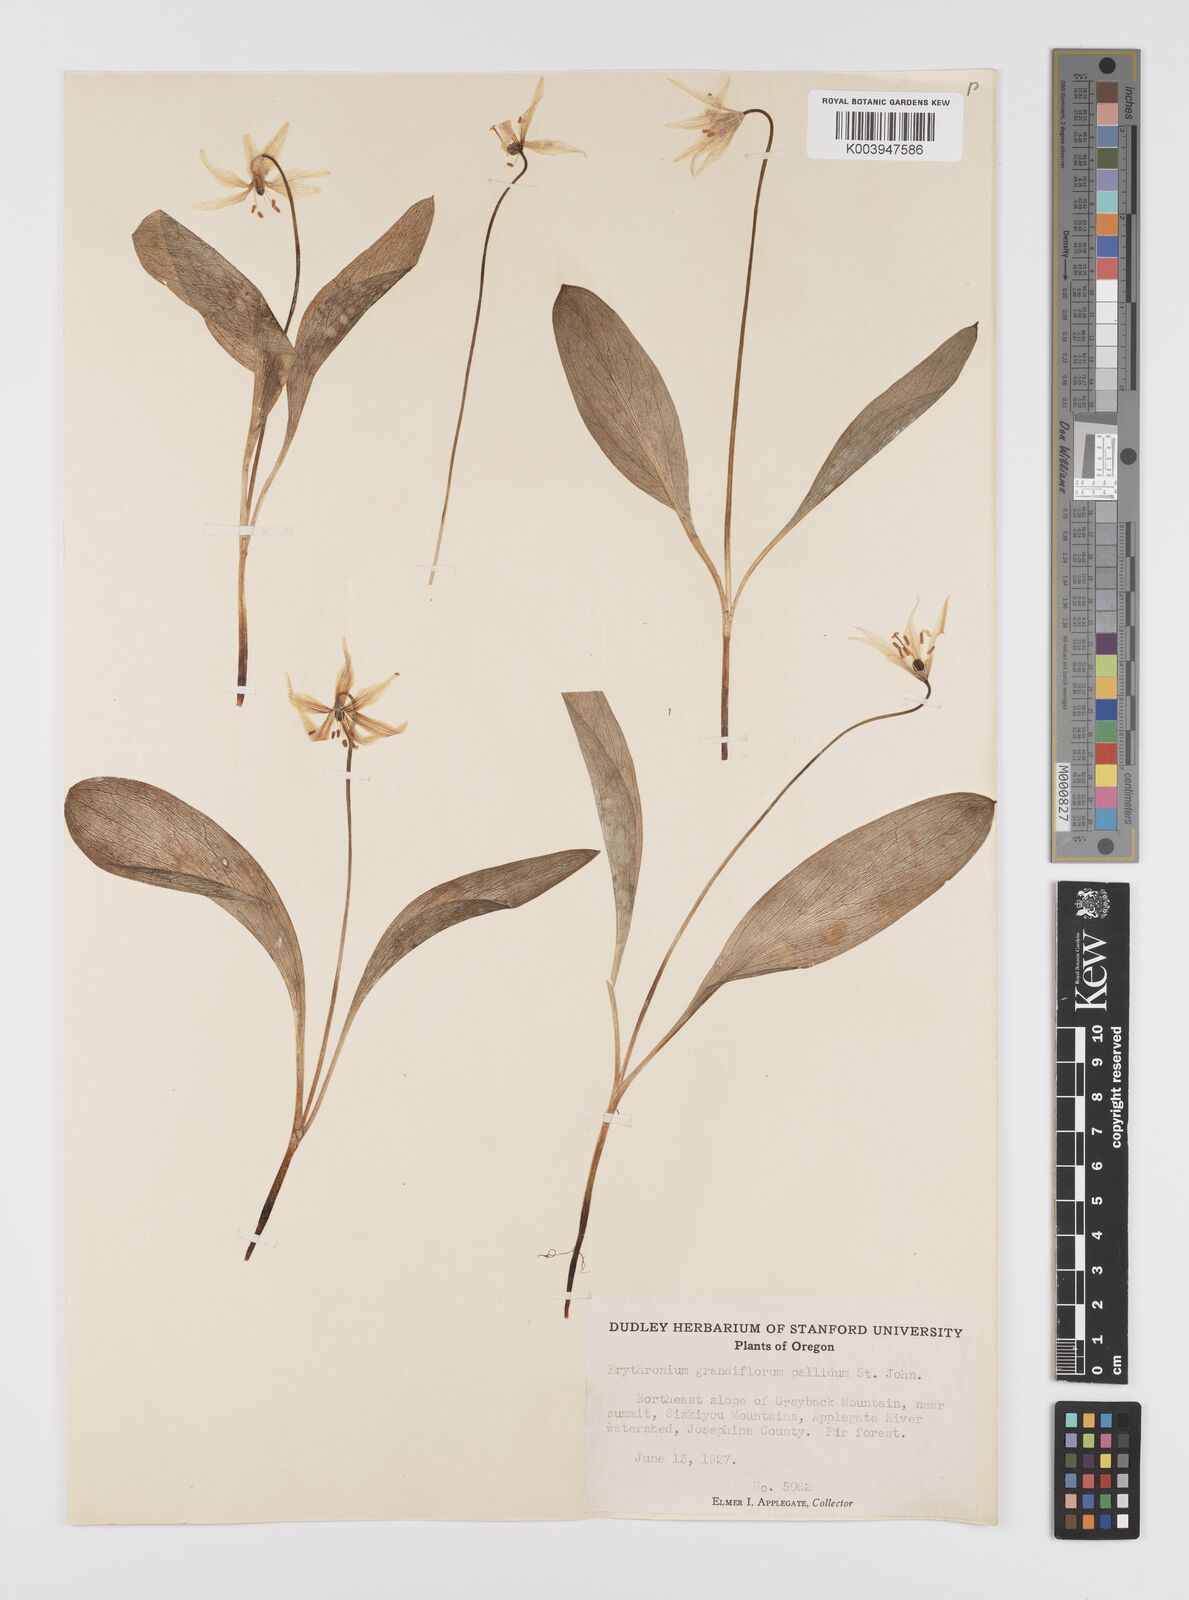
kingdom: Plantae
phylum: Tracheophyta
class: Liliopsida
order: Liliales
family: Liliaceae
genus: Erythronium
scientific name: Erythronium grandiflorum
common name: Avalanche-lily
